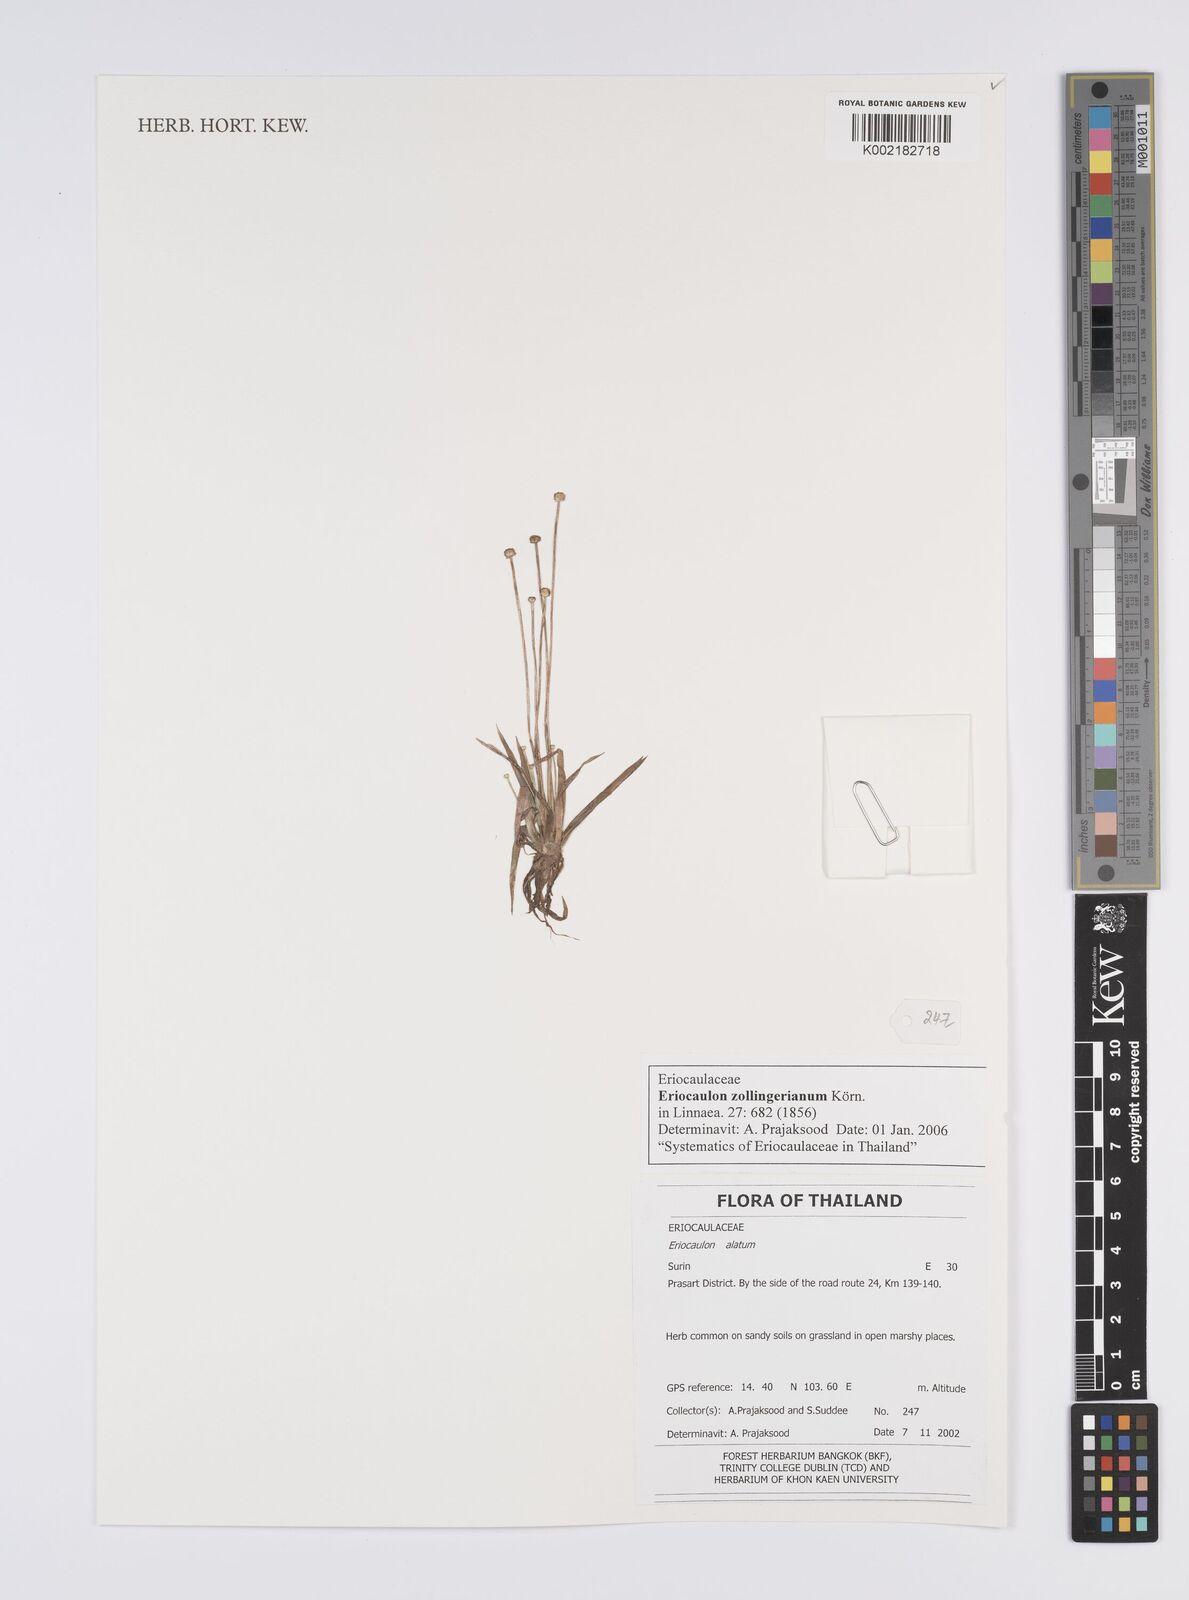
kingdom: Plantae
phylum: Tracheophyta
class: Liliopsida
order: Poales
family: Eriocaulaceae
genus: Eriocaulon
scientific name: Eriocaulon zollingerianum
